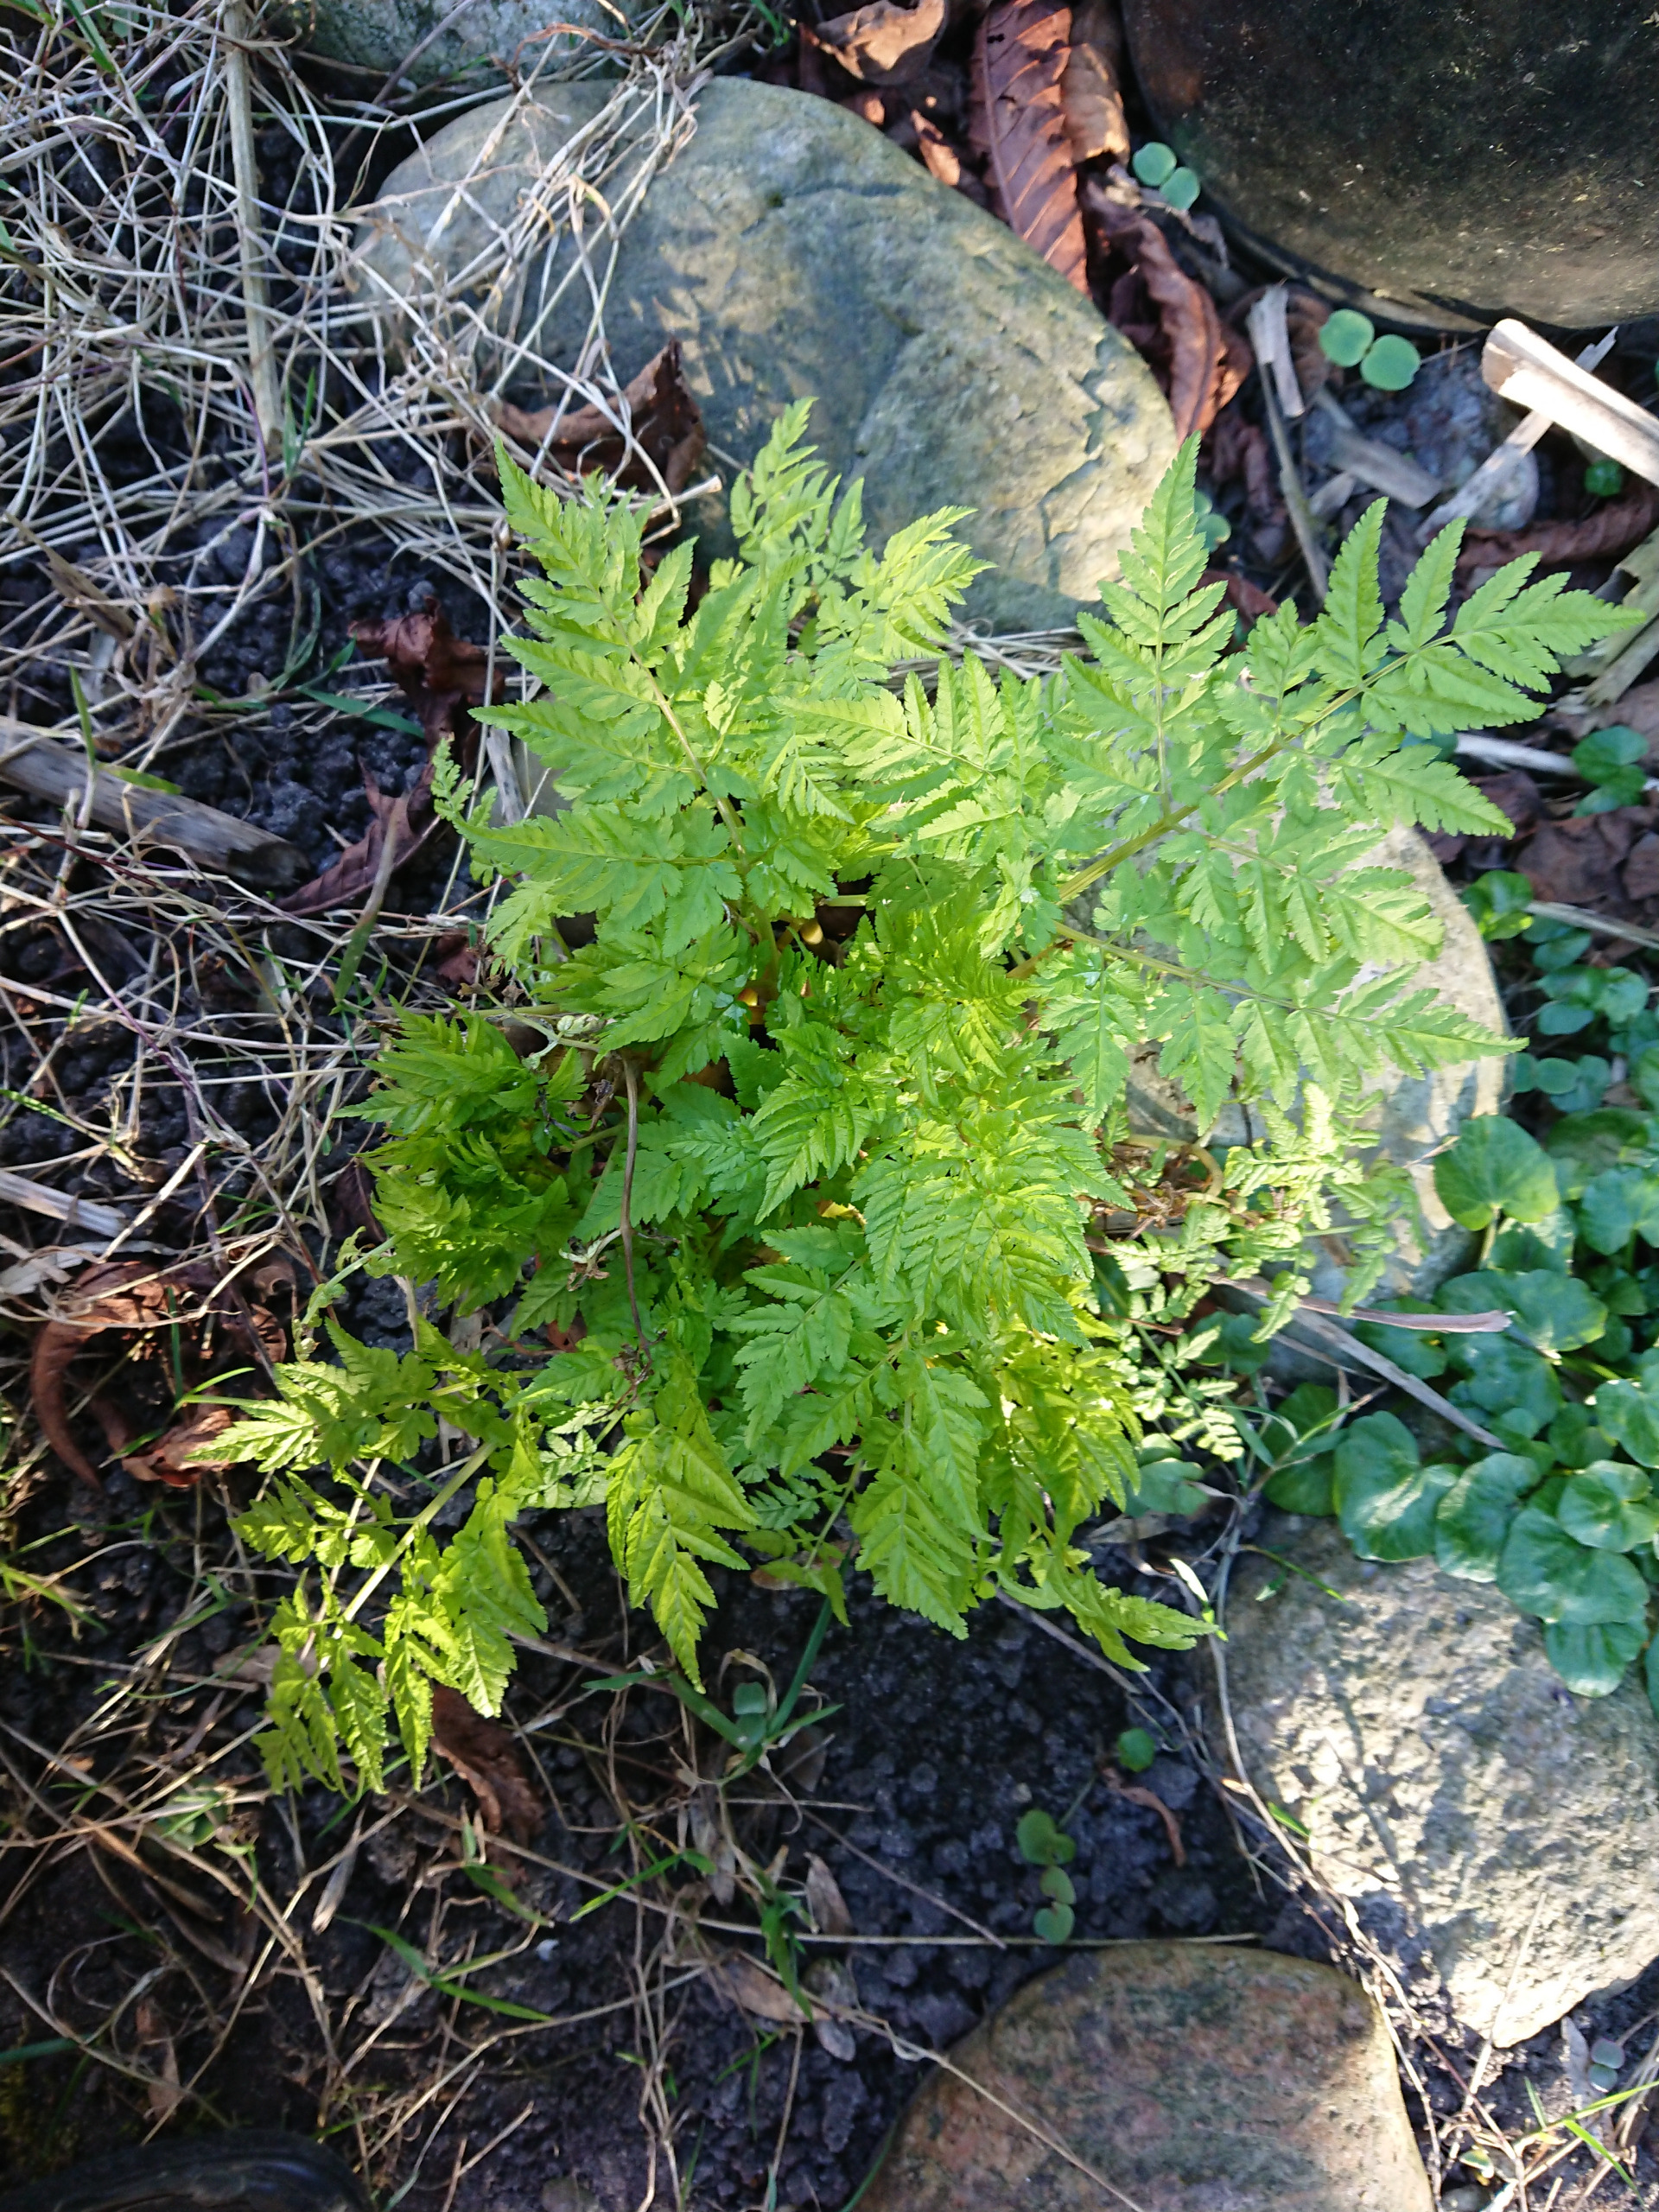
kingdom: Plantae
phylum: Tracheophyta
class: Magnoliopsida
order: Apiales
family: Apiaceae
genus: Myrrhis
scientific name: Myrrhis odorata
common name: Sødskærm
